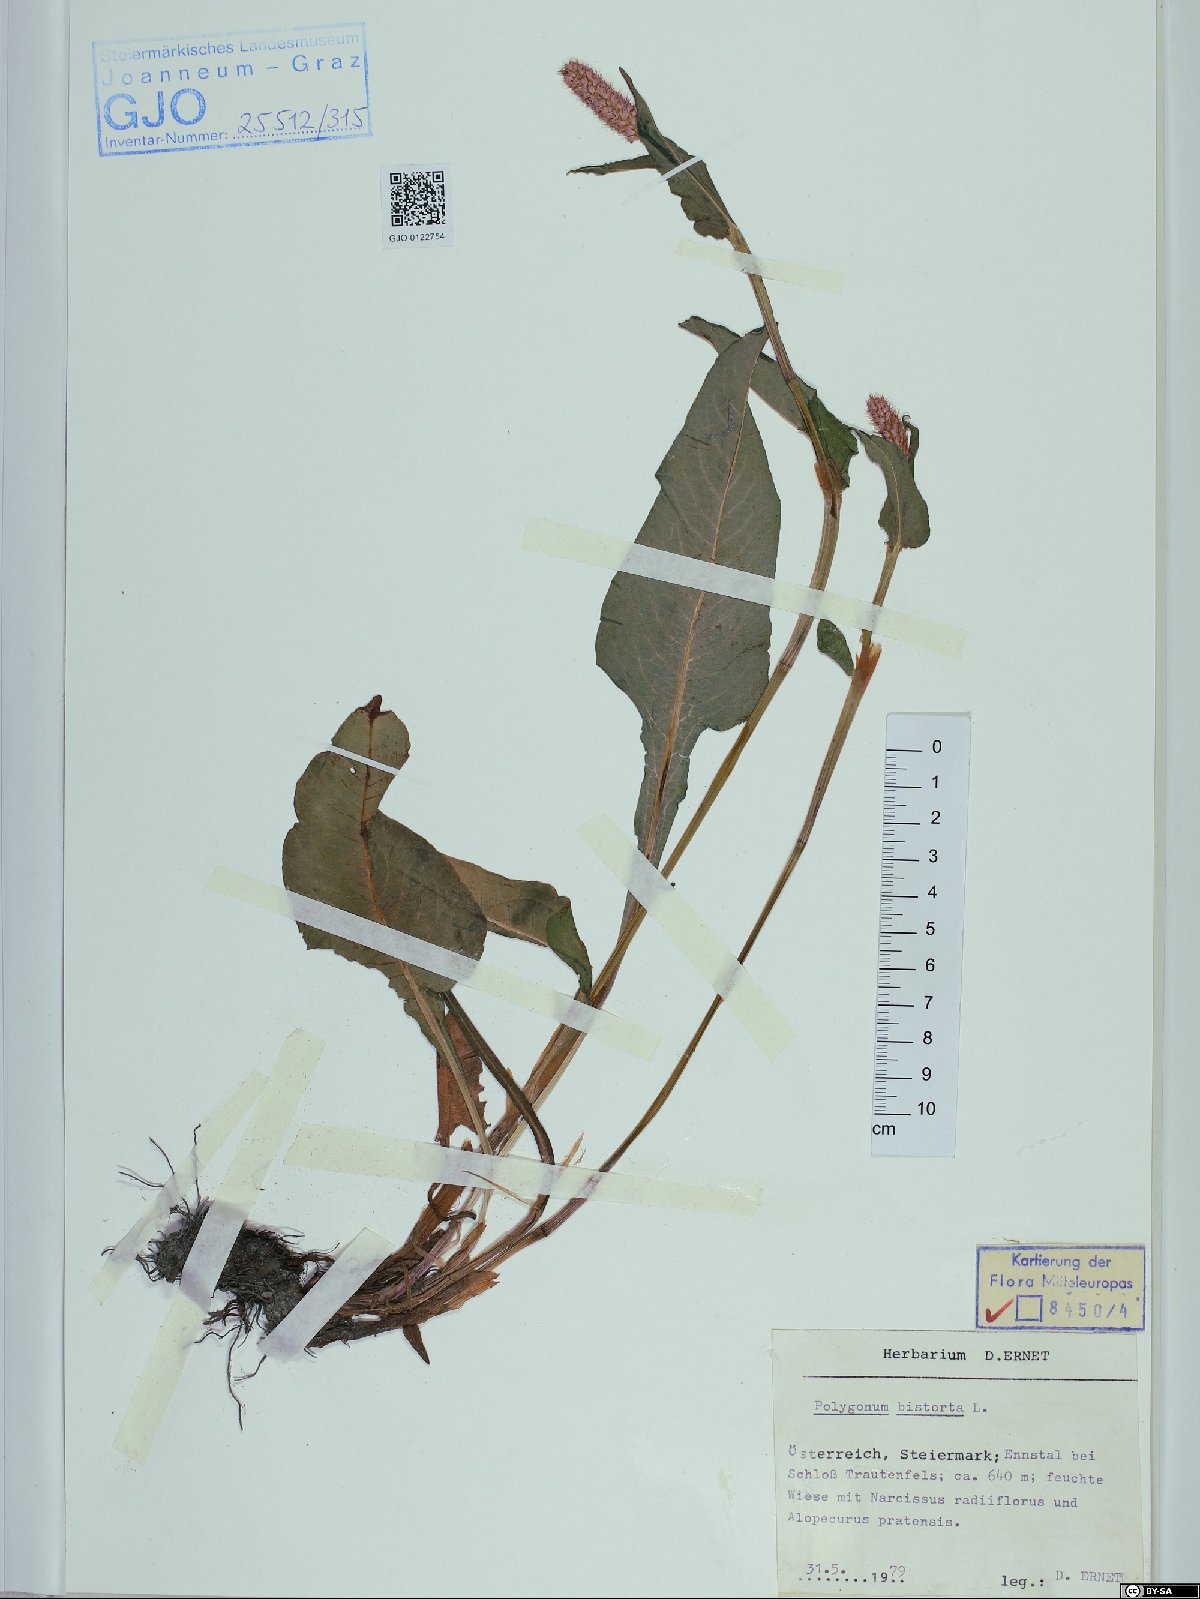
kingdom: Plantae
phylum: Tracheophyta
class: Magnoliopsida
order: Caryophyllales
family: Polygonaceae
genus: Bistorta
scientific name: Bistorta officinalis
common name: Common bistort
